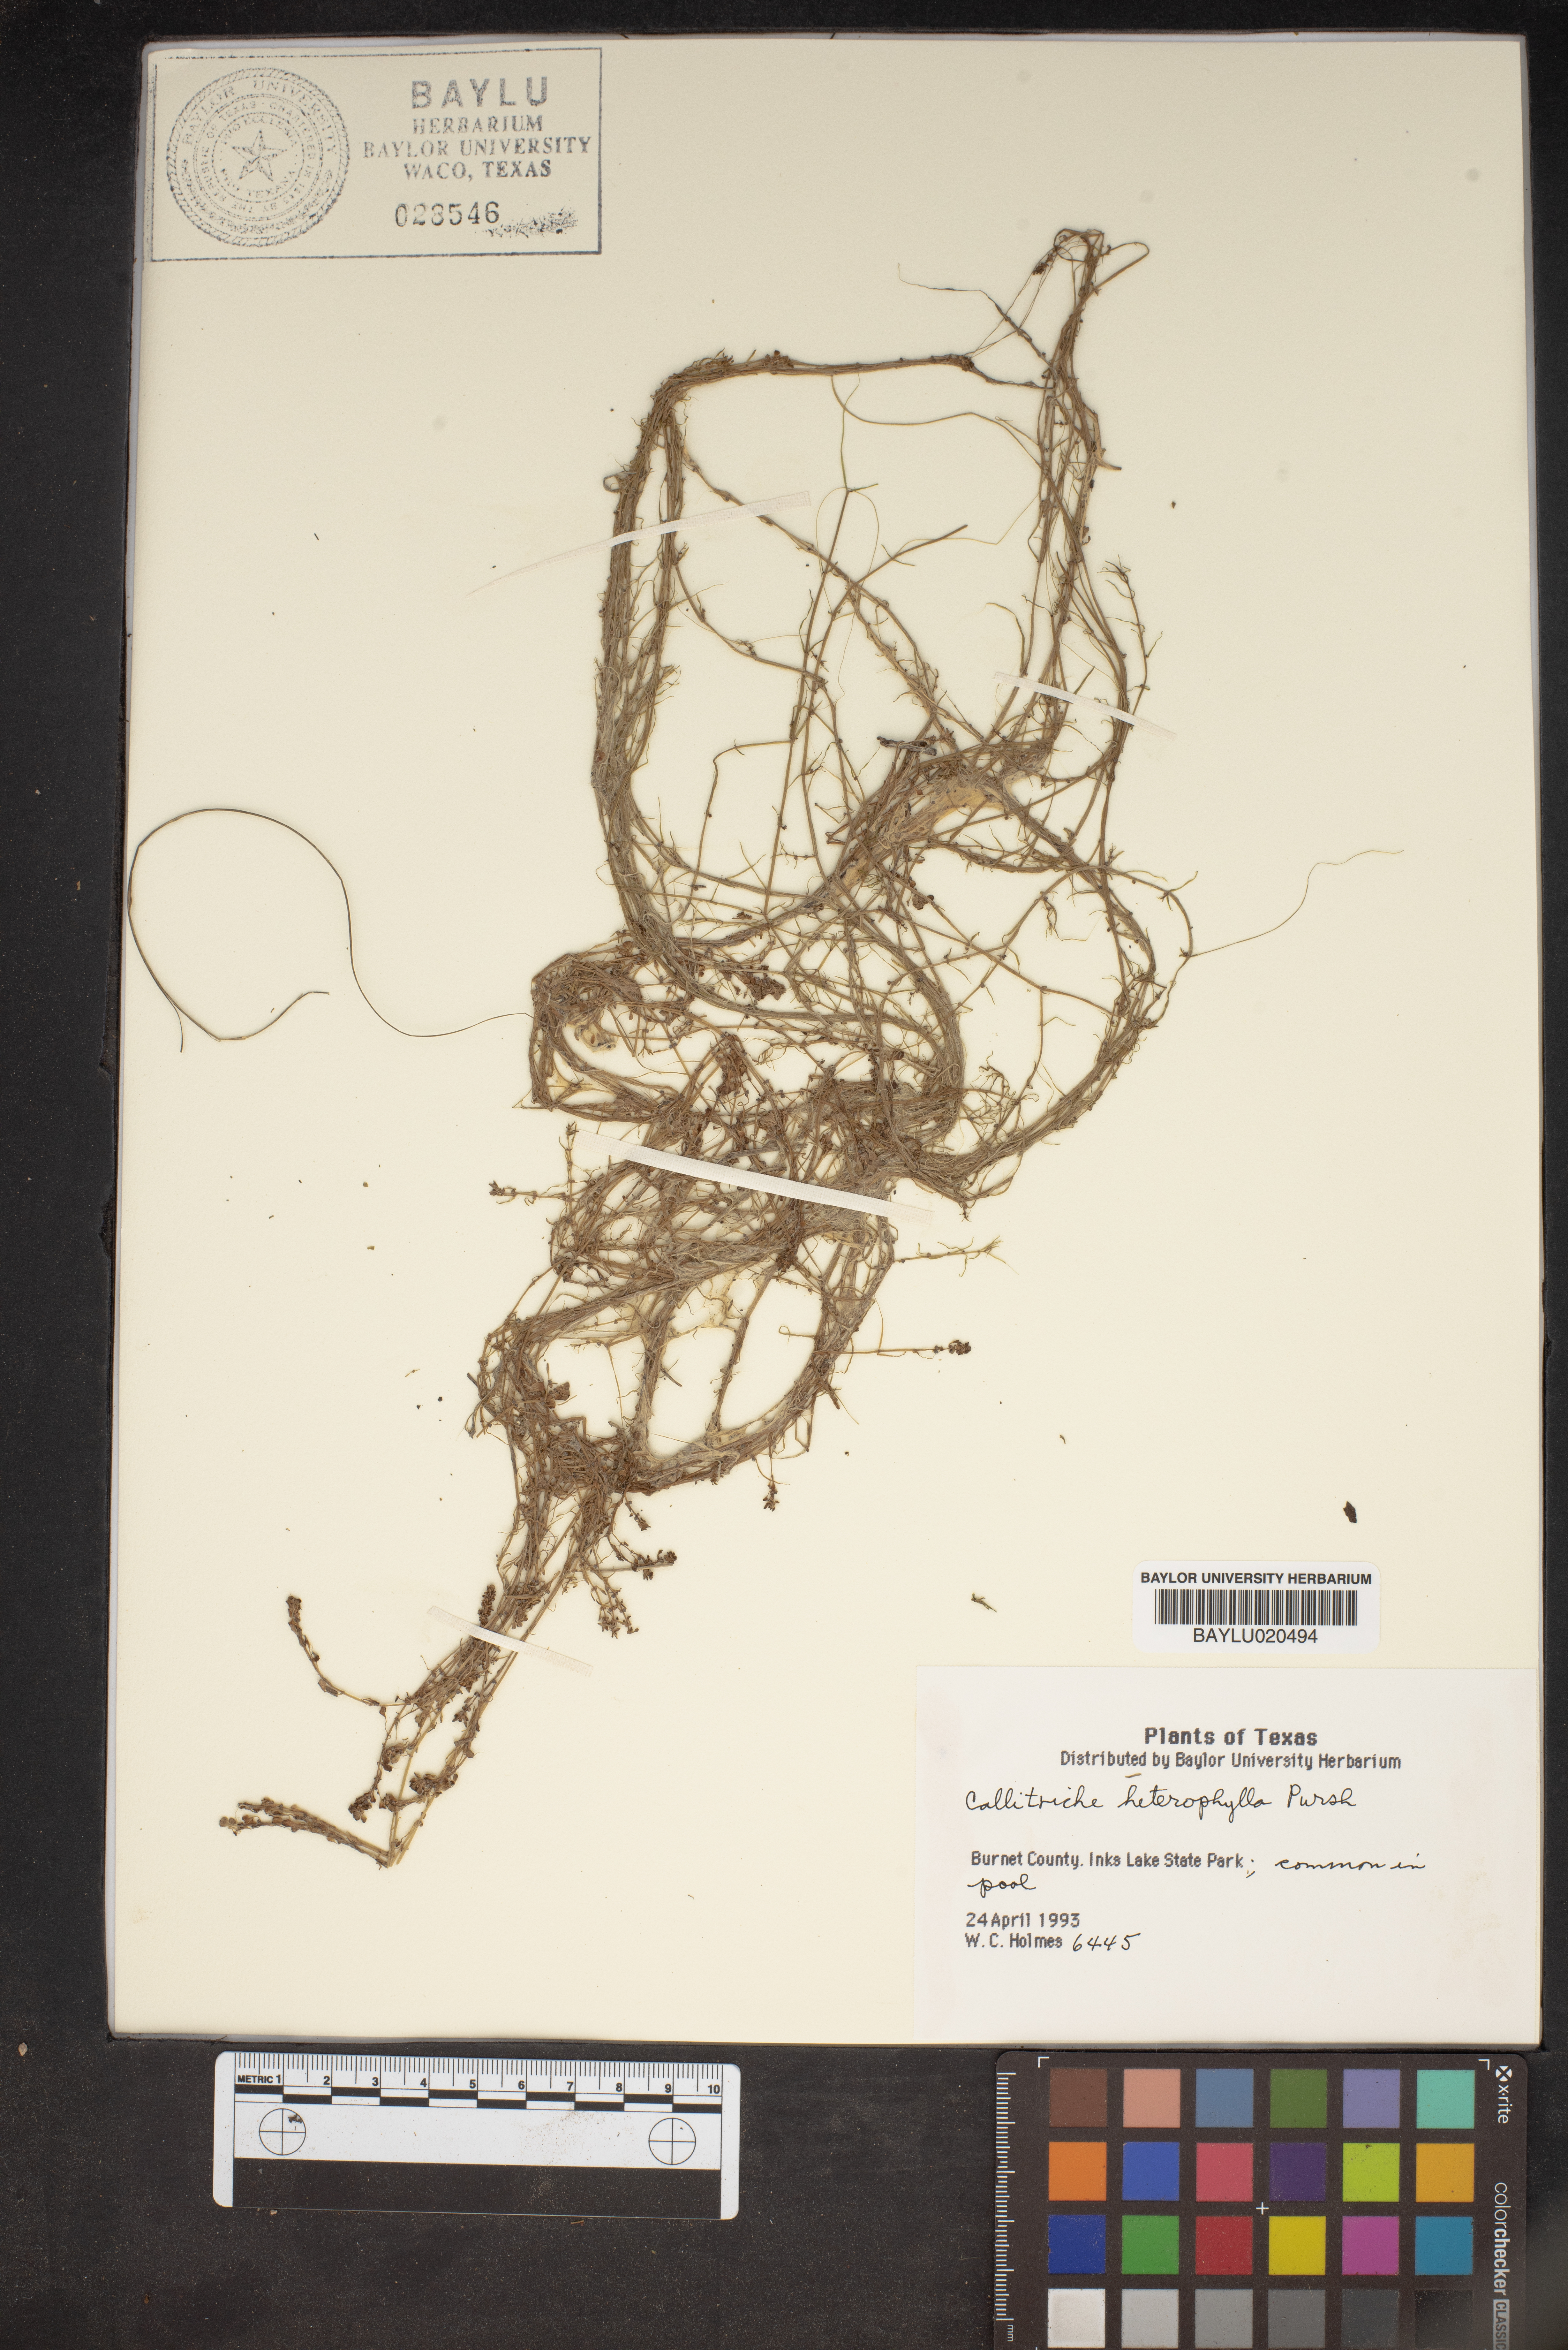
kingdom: Plantae
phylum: Tracheophyta
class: Magnoliopsida
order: Lamiales
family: Plantaginaceae
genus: Callitriche
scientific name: Callitriche heterophylla
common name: Two-headed water-starwort
